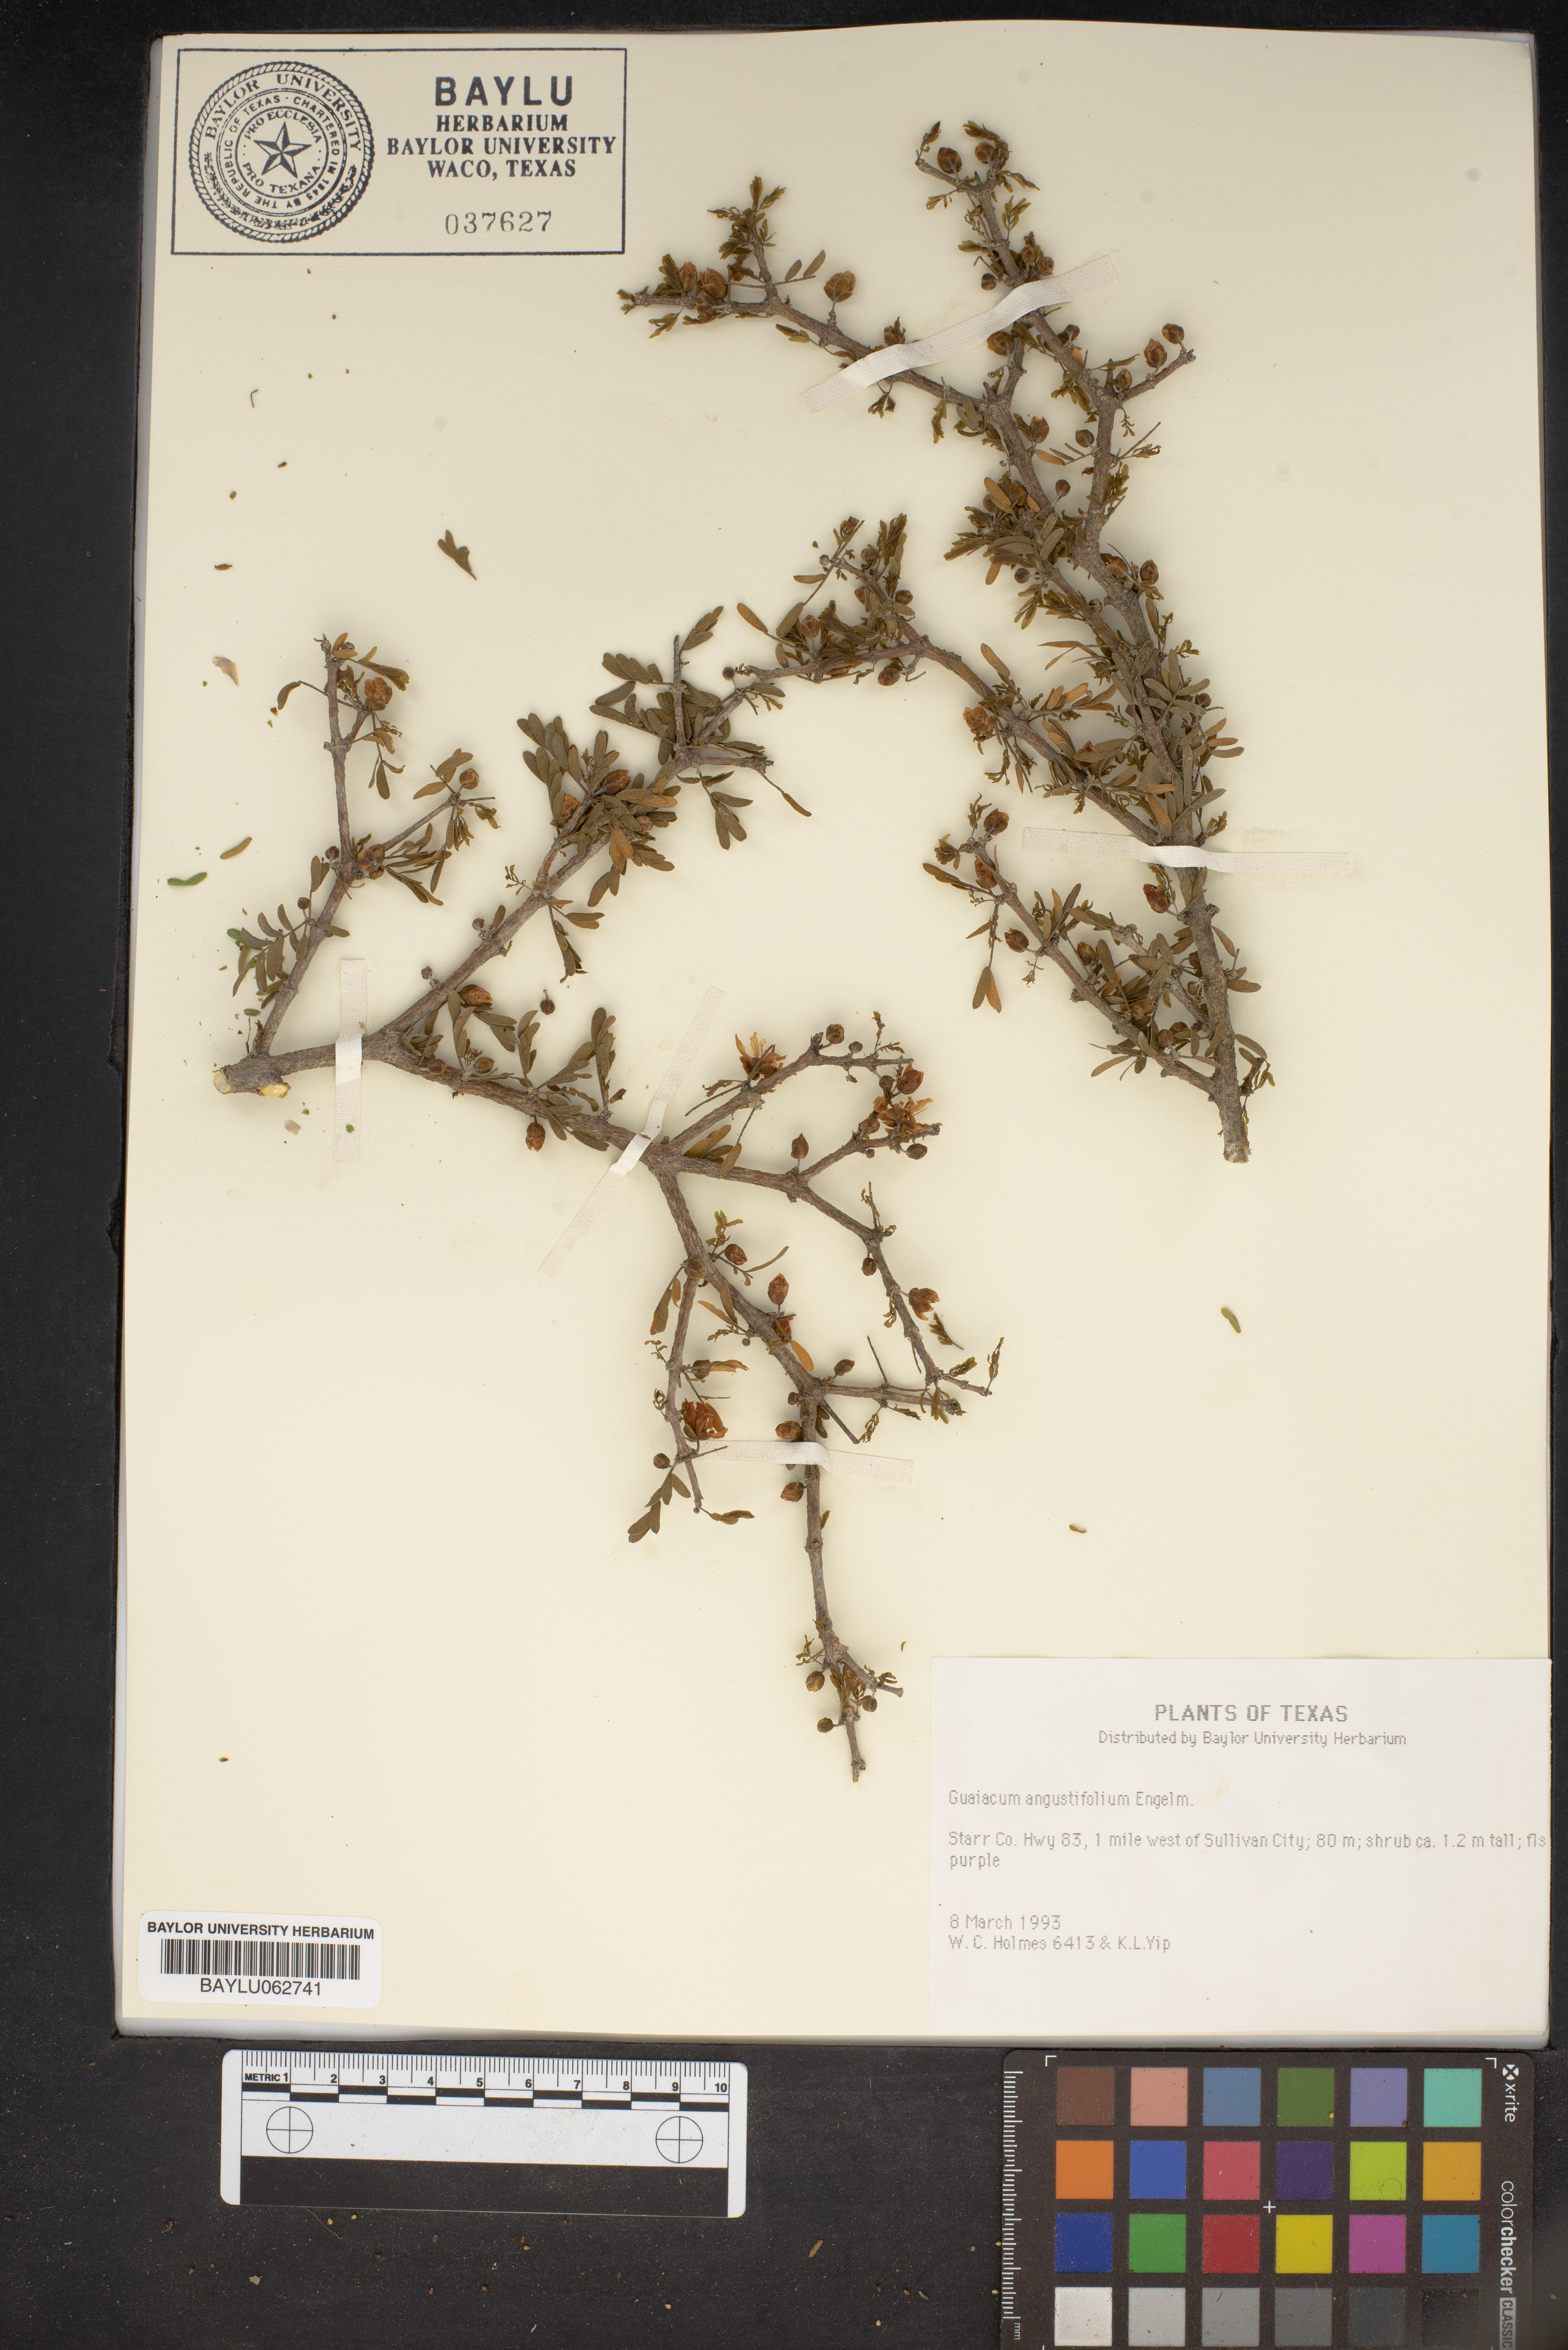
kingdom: Plantae
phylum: Tracheophyta
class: Magnoliopsida
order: Zygophyllales
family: Zygophyllaceae
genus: Porlieria
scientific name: Porlieria angustifolia
